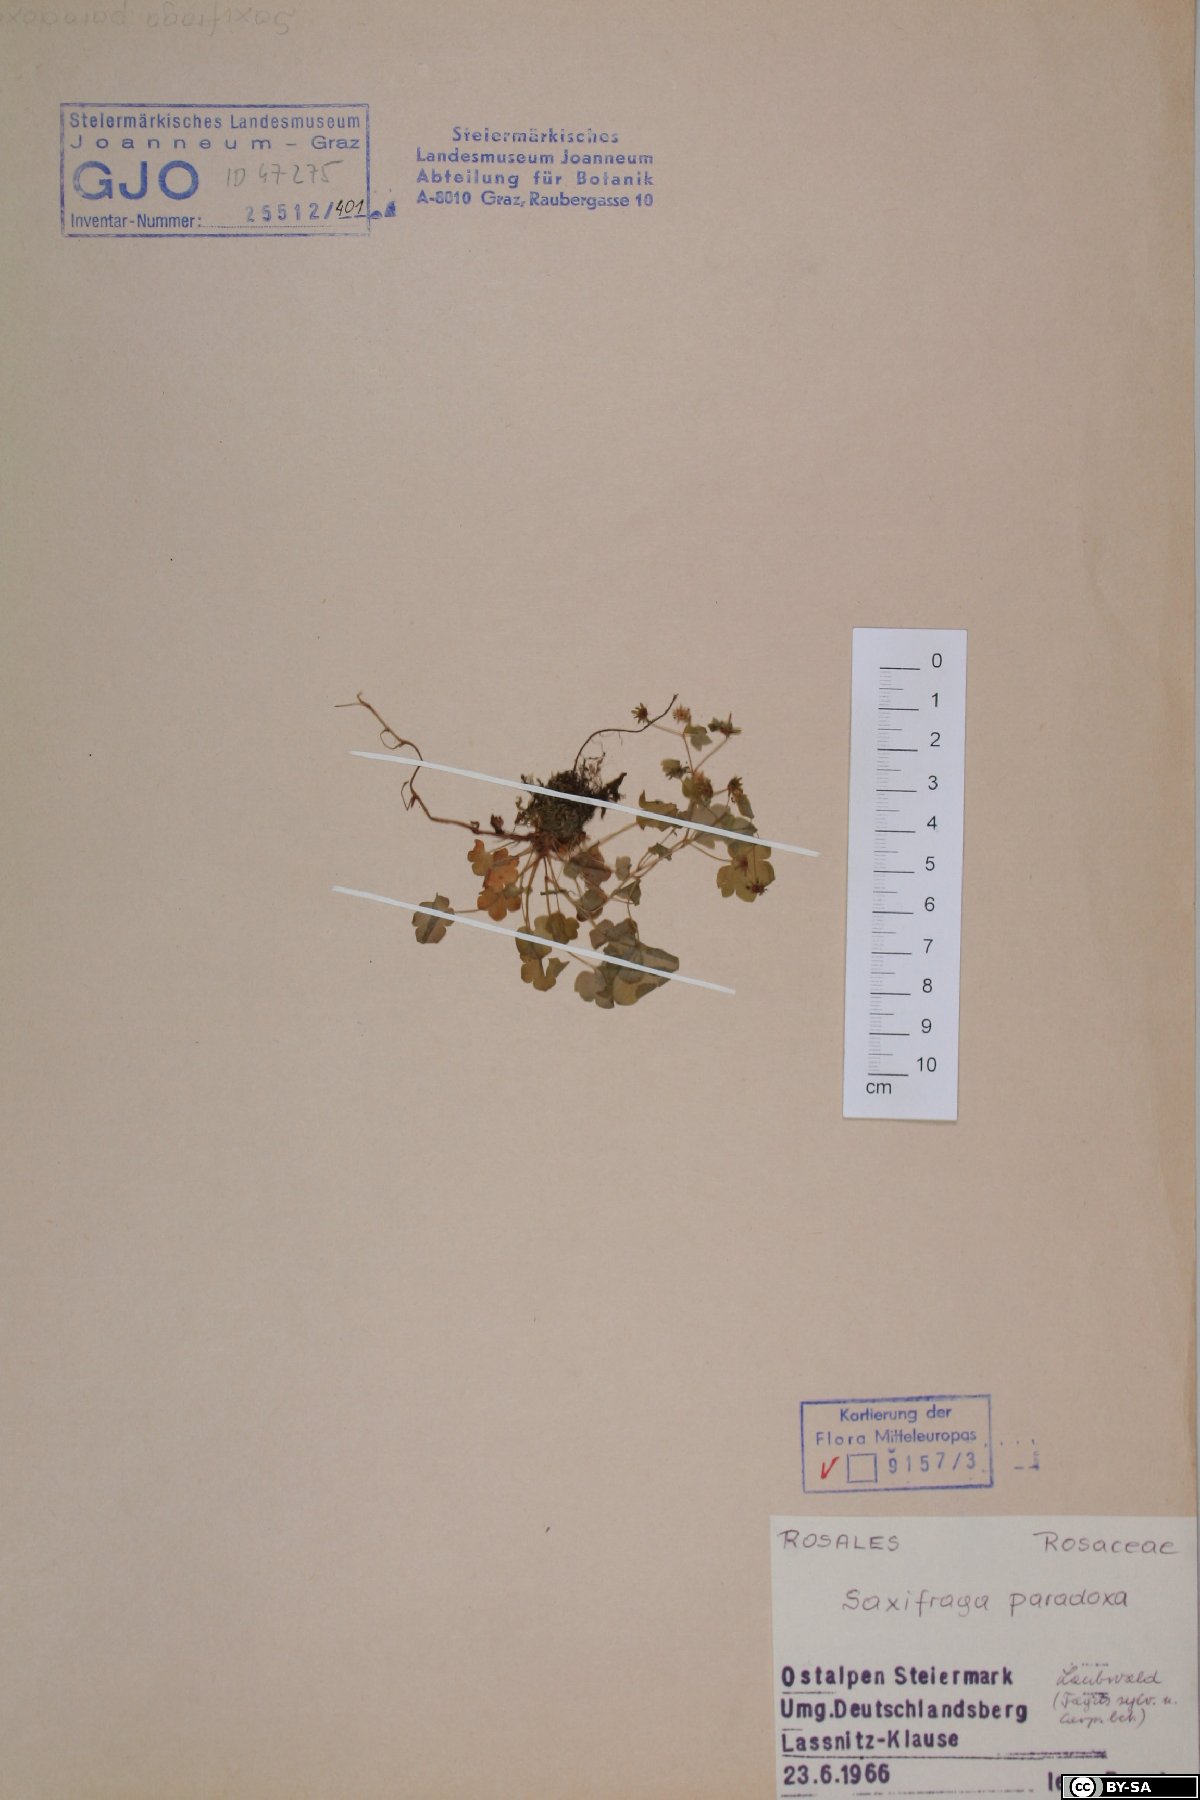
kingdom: Plantae
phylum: Tracheophyta
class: Magnoliopsida
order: Saxifragales
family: Saxifragaceae
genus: Saxifraga
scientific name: Saxifraga paradoxa
